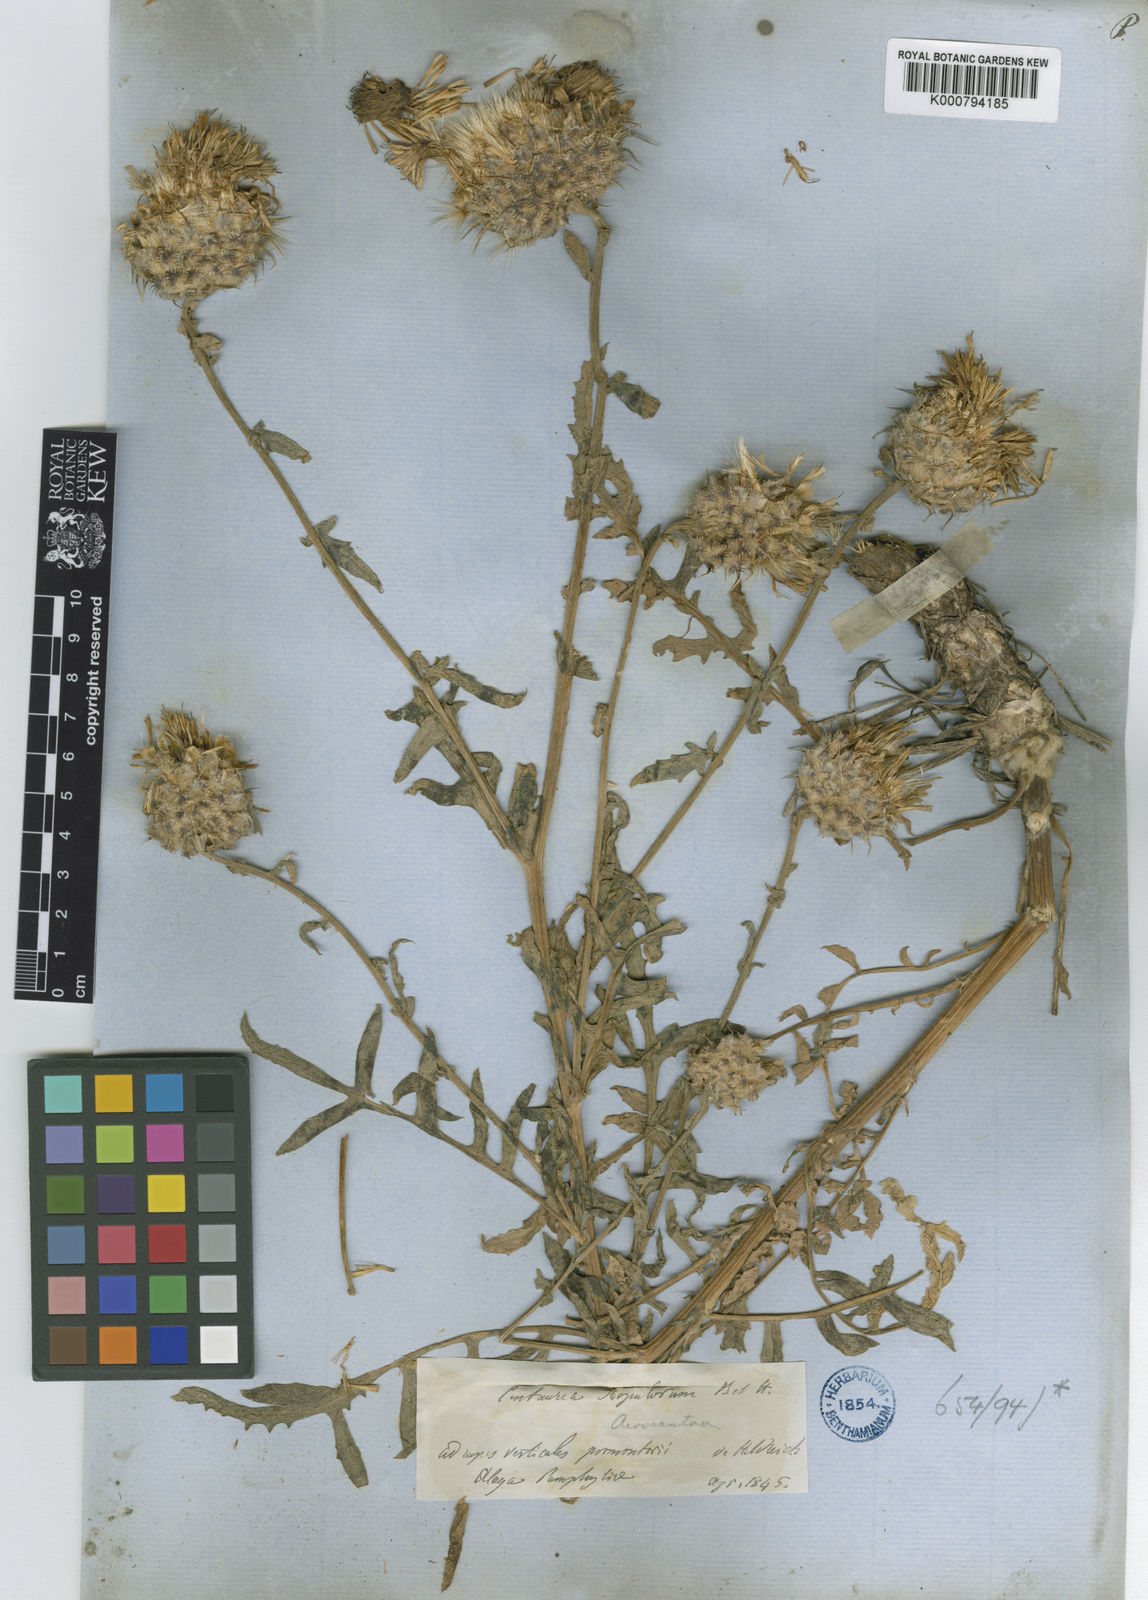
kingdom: Plantae
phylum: Tracheophyta
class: Magnoliopsida
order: Asterales
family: Asteraceae
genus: Centaurea
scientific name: Centaurea scopulorum
